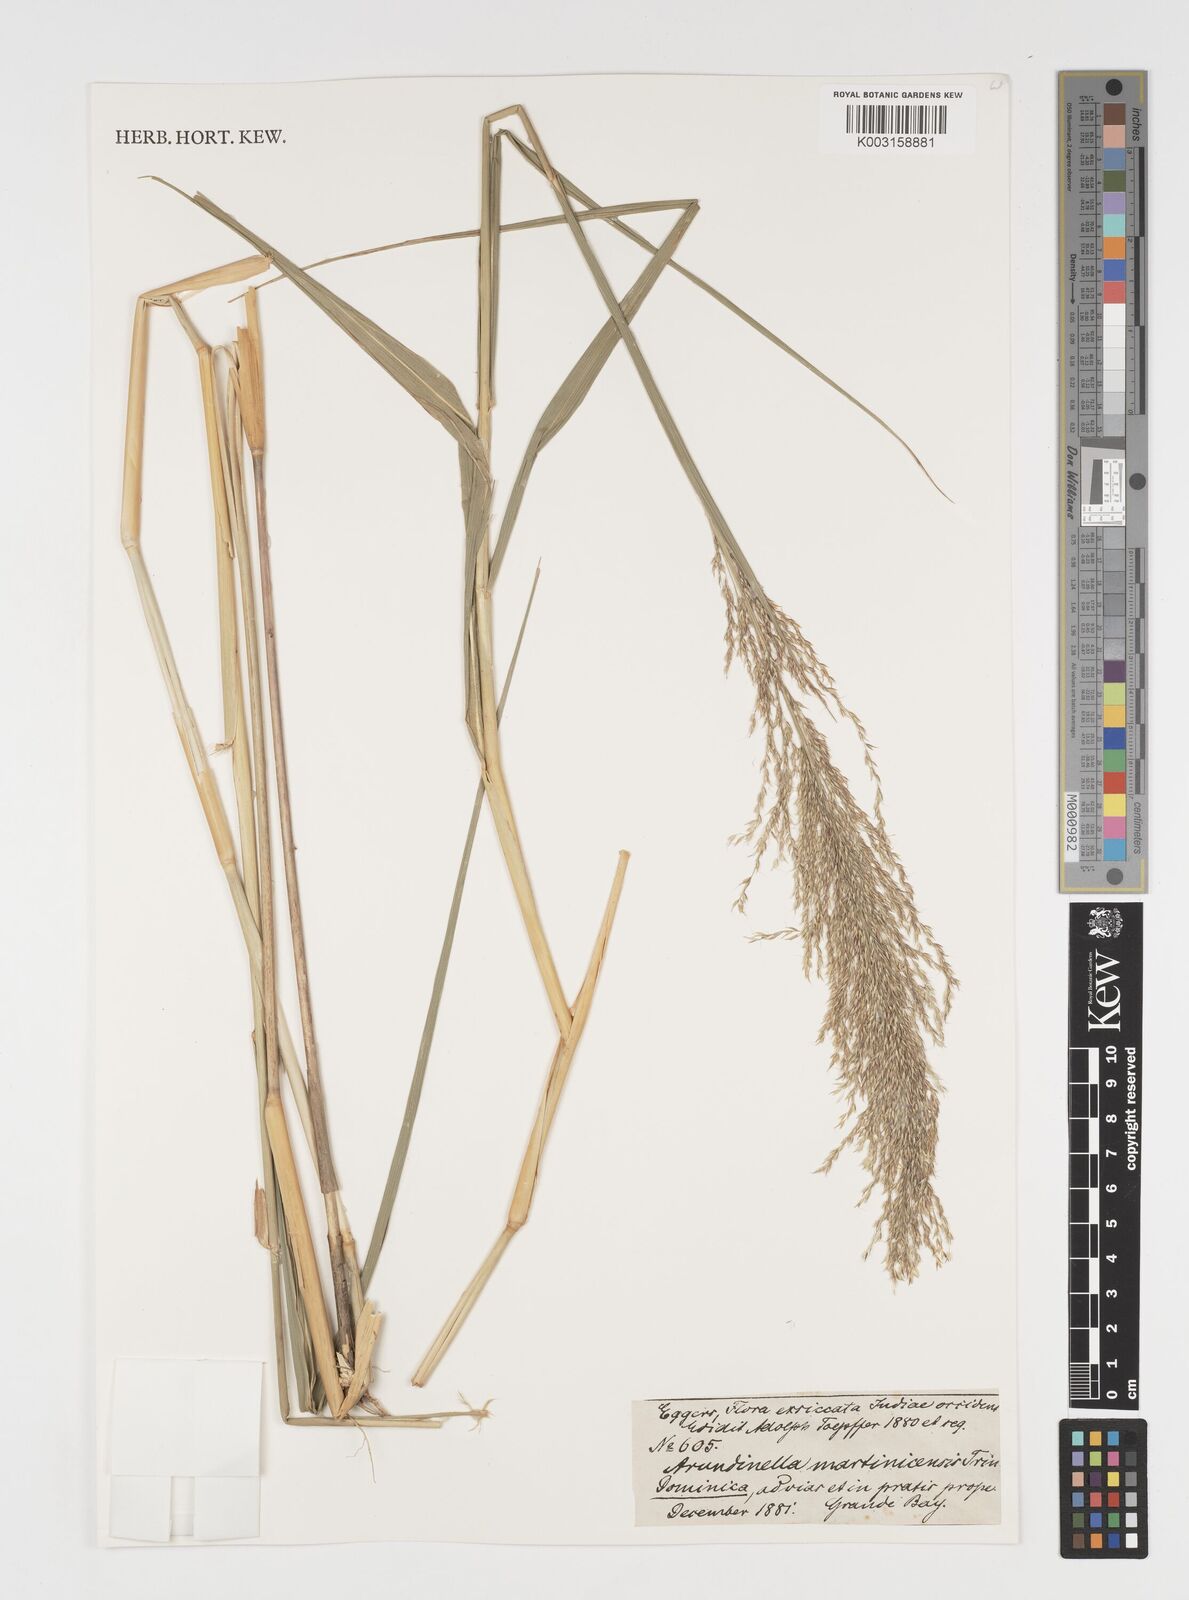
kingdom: Plantae
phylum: Tracheophyta
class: Liliopsida
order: Poales
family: Poaceae
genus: Arundinella
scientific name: Arundinella hispida
